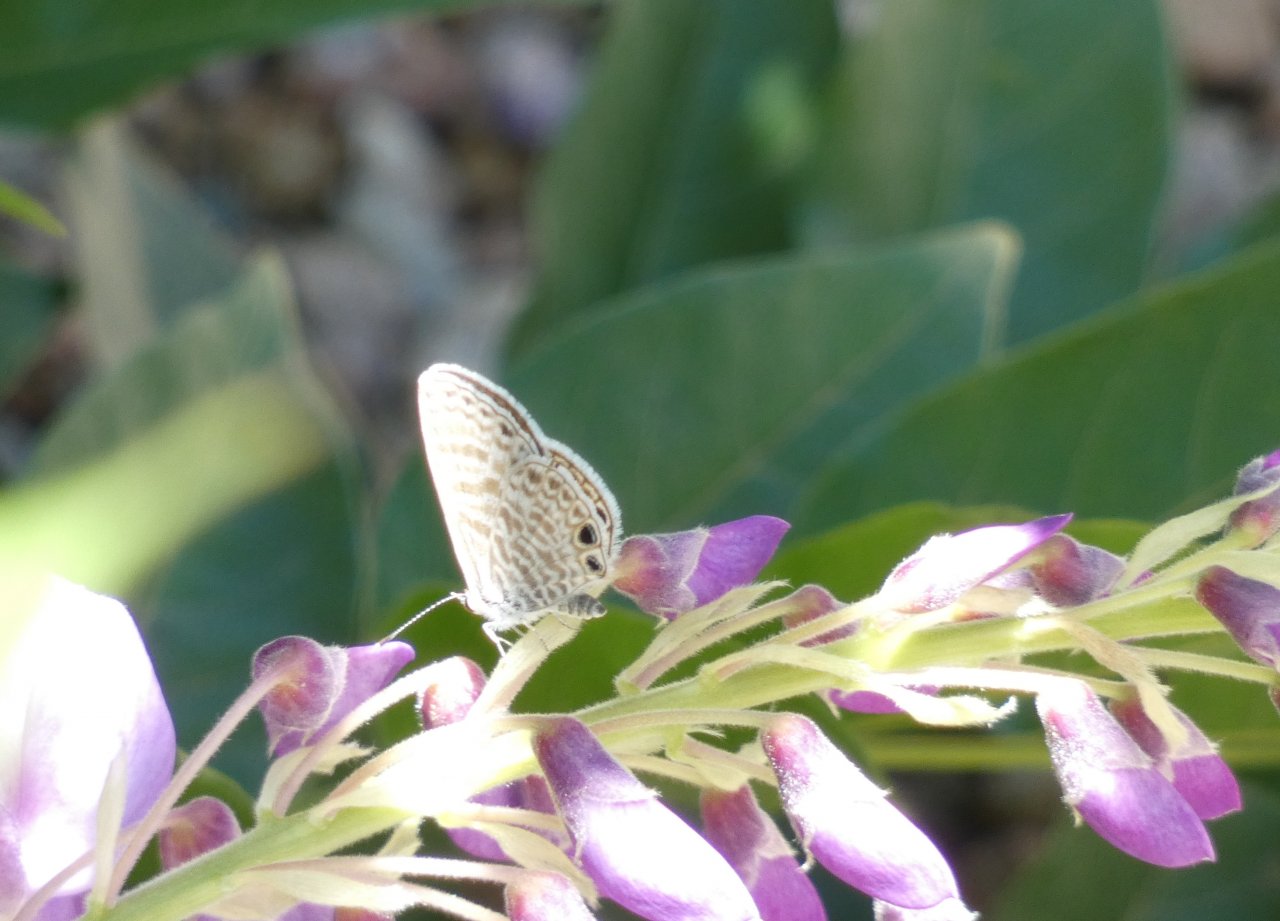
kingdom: Animalia
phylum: Arthropoda
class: Insecta
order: Lepidoptera
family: Lycaenidae
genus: Leptotes
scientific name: Leptotes marina
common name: Marine Blue
